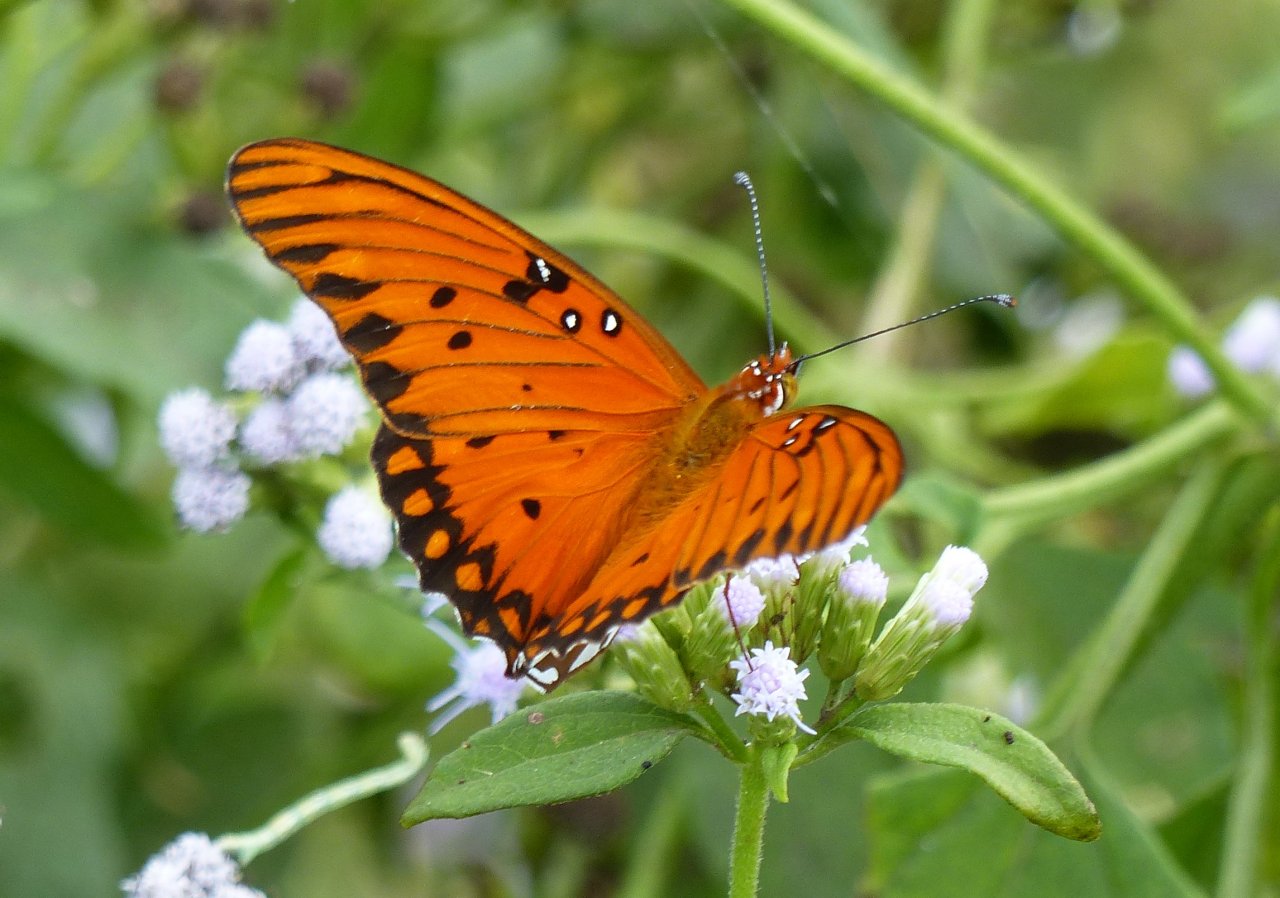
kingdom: Animalia
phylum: Arthropoda
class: Insecta
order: Lepidoptera
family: Nymphalidae
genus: Dione
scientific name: Dione vanillae
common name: Gulf Fritillary
